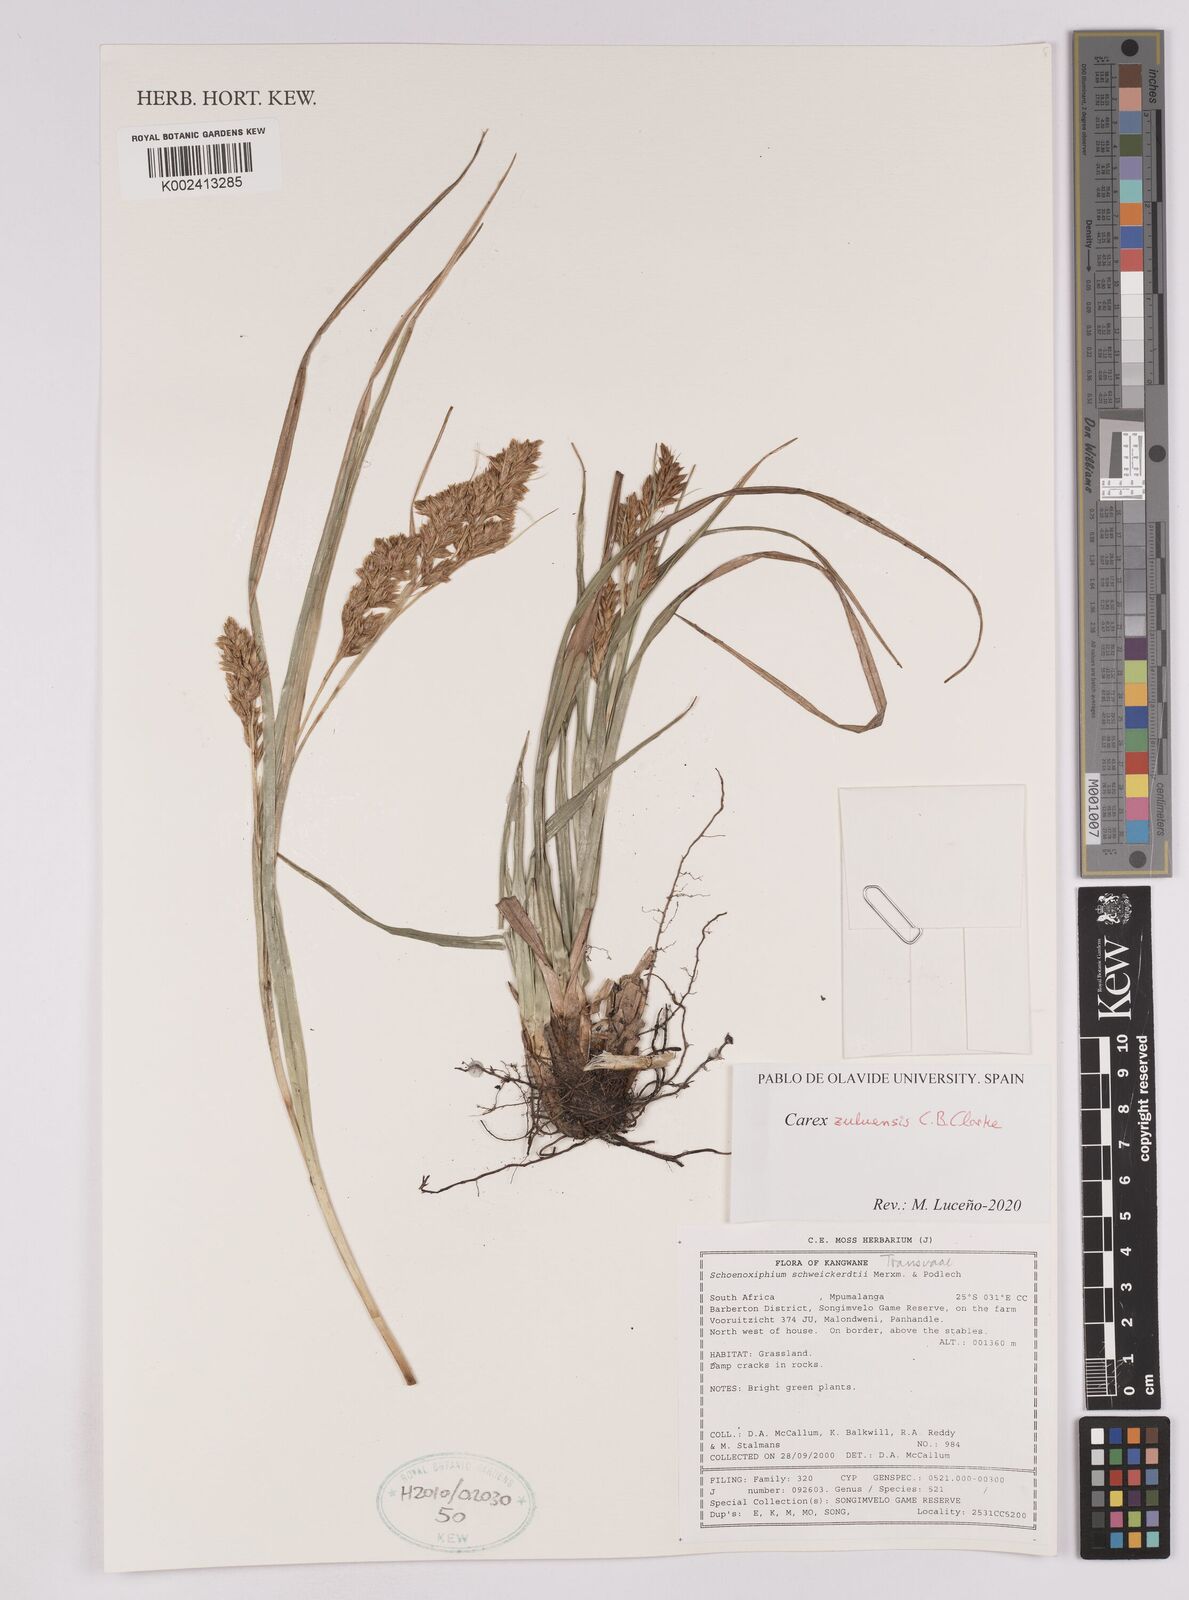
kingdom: Plantae
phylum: Tracheophyta
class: Liliopsida
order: Poales
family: Cyperaceae
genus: Carex
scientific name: Carex schweickerdtii
